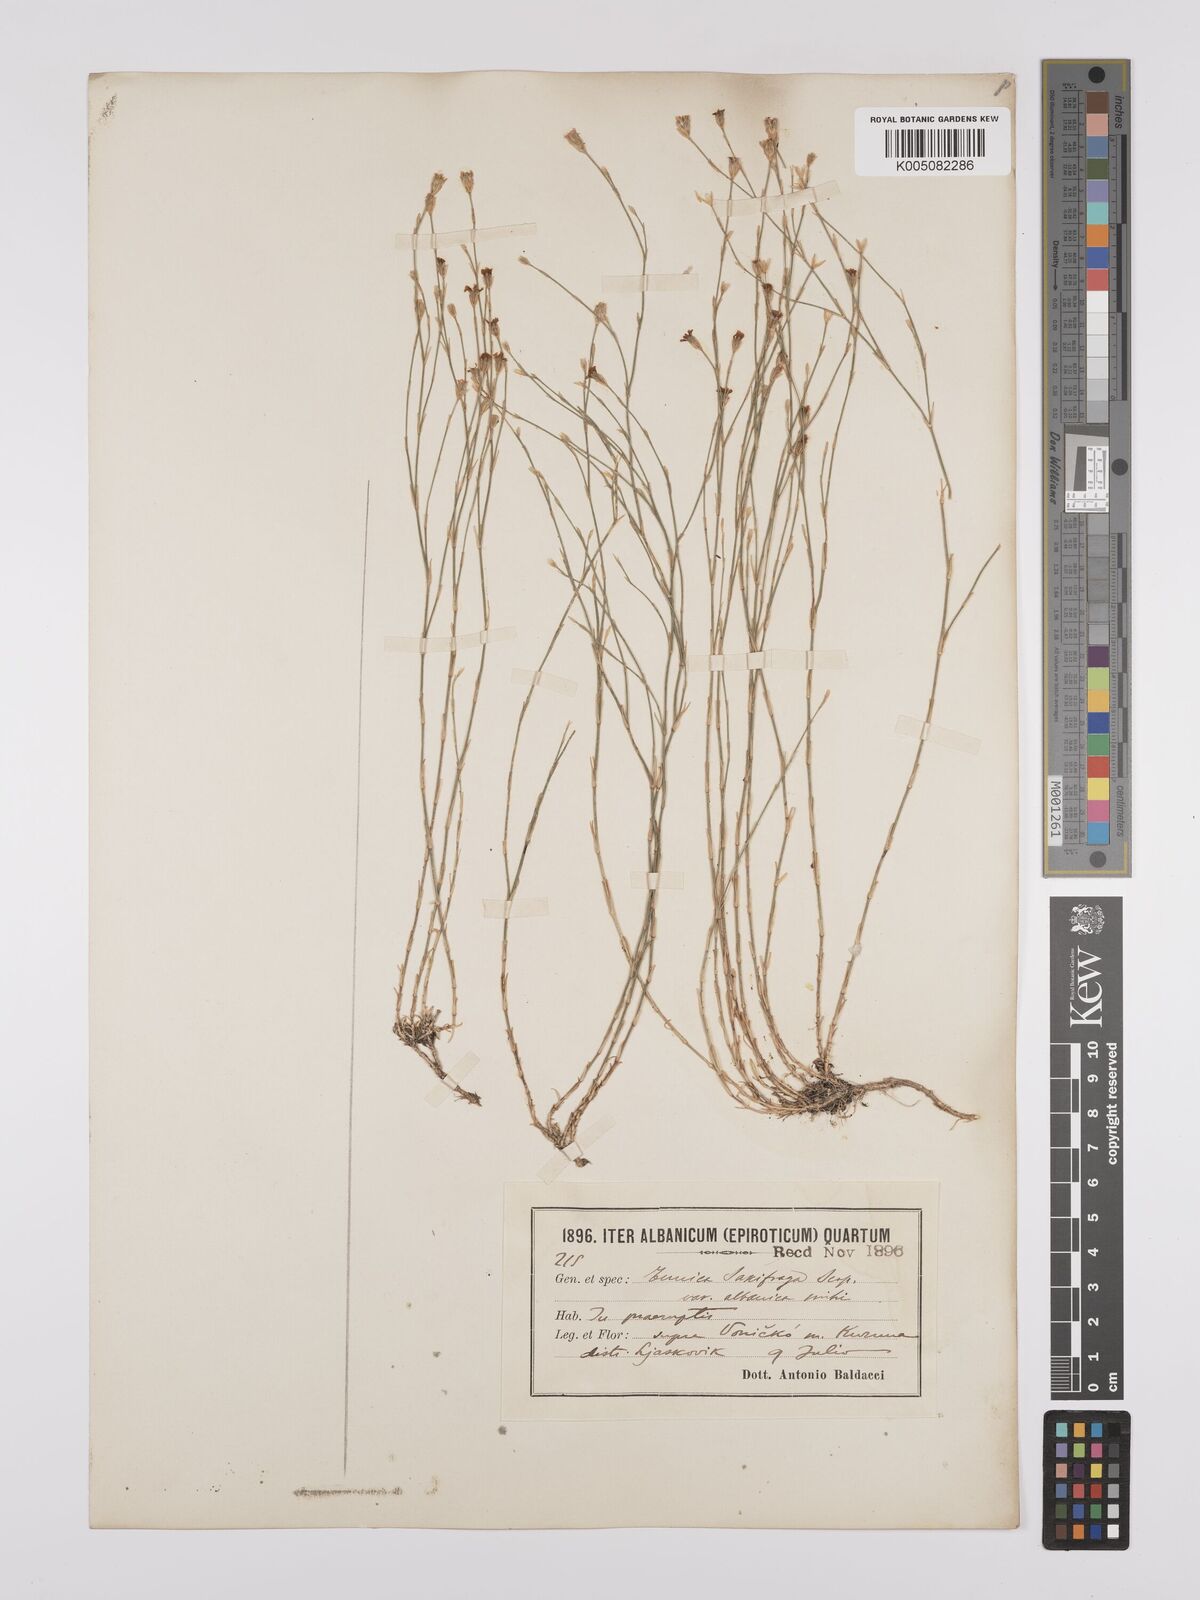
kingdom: Plantae
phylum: Tracheophyta
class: Magnoliopsida
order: Caryophyllales
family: Caryophyllaceae
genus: Petrorhagia
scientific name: Petrorhagia saxifraga
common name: Tunicflower
